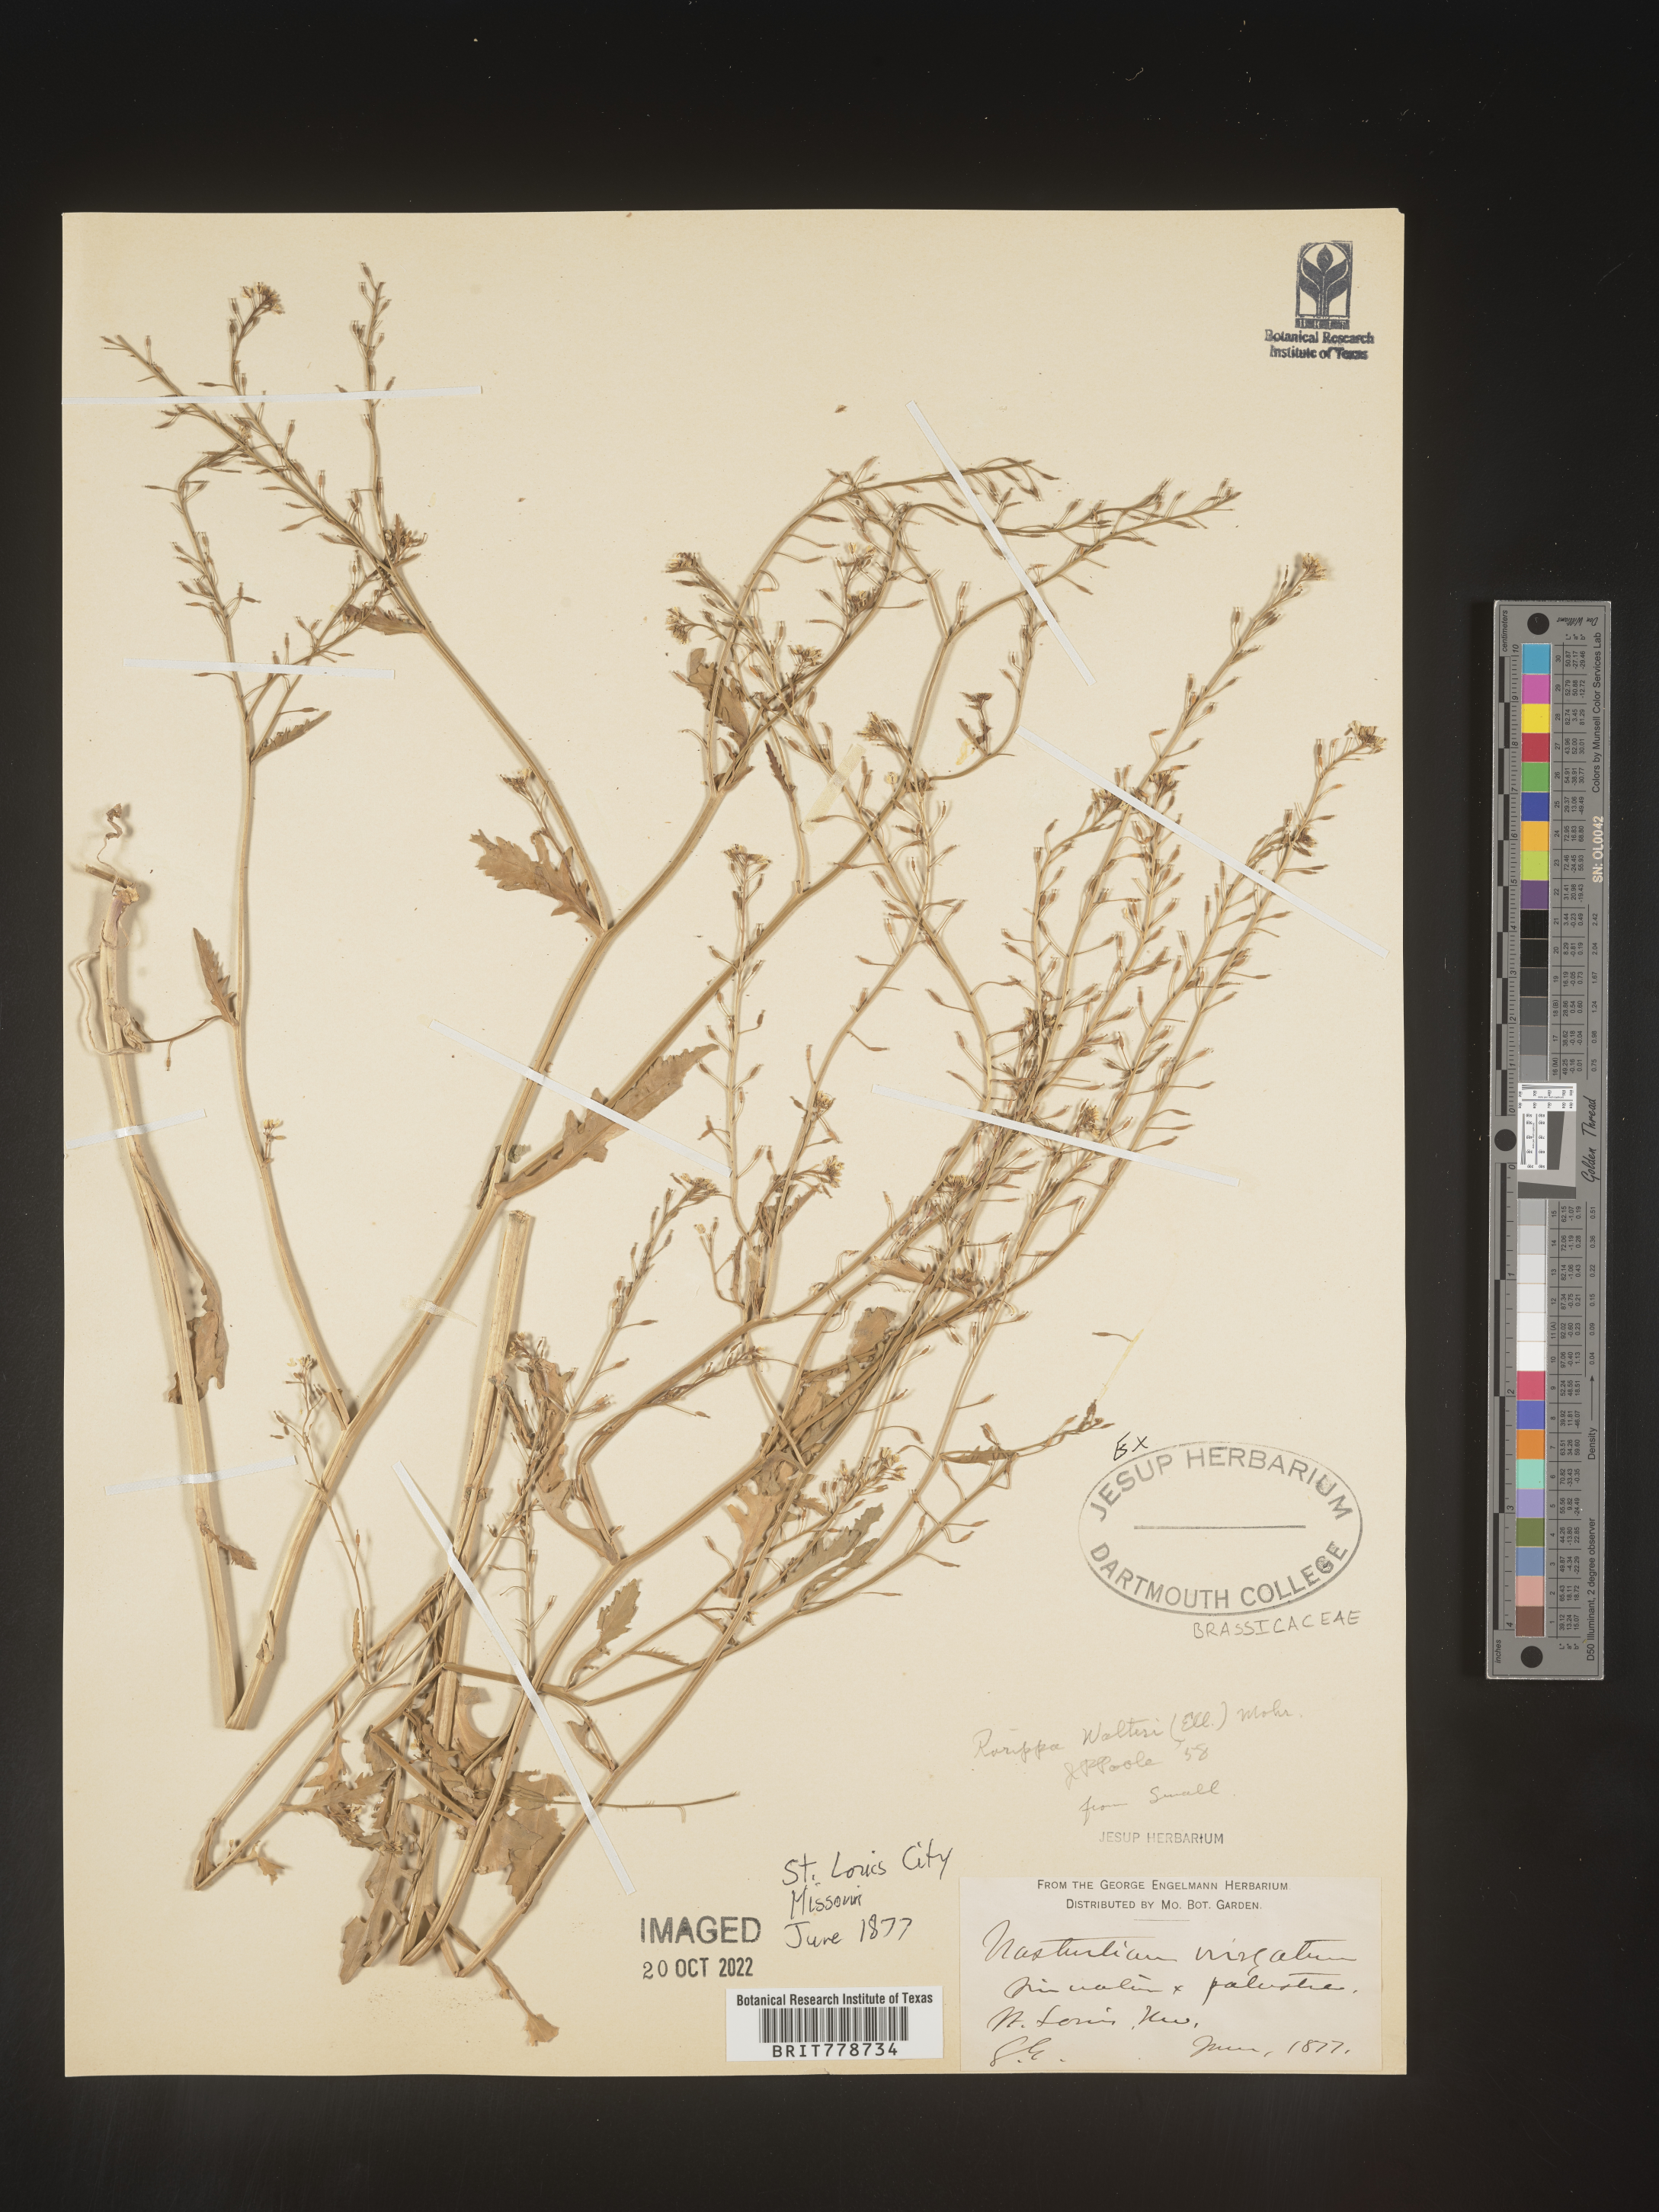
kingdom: Plantae
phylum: Tracheophyta
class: Magnoliopsida
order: Brassicales
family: Brassicaceae
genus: Rorippa
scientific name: Rorippa
